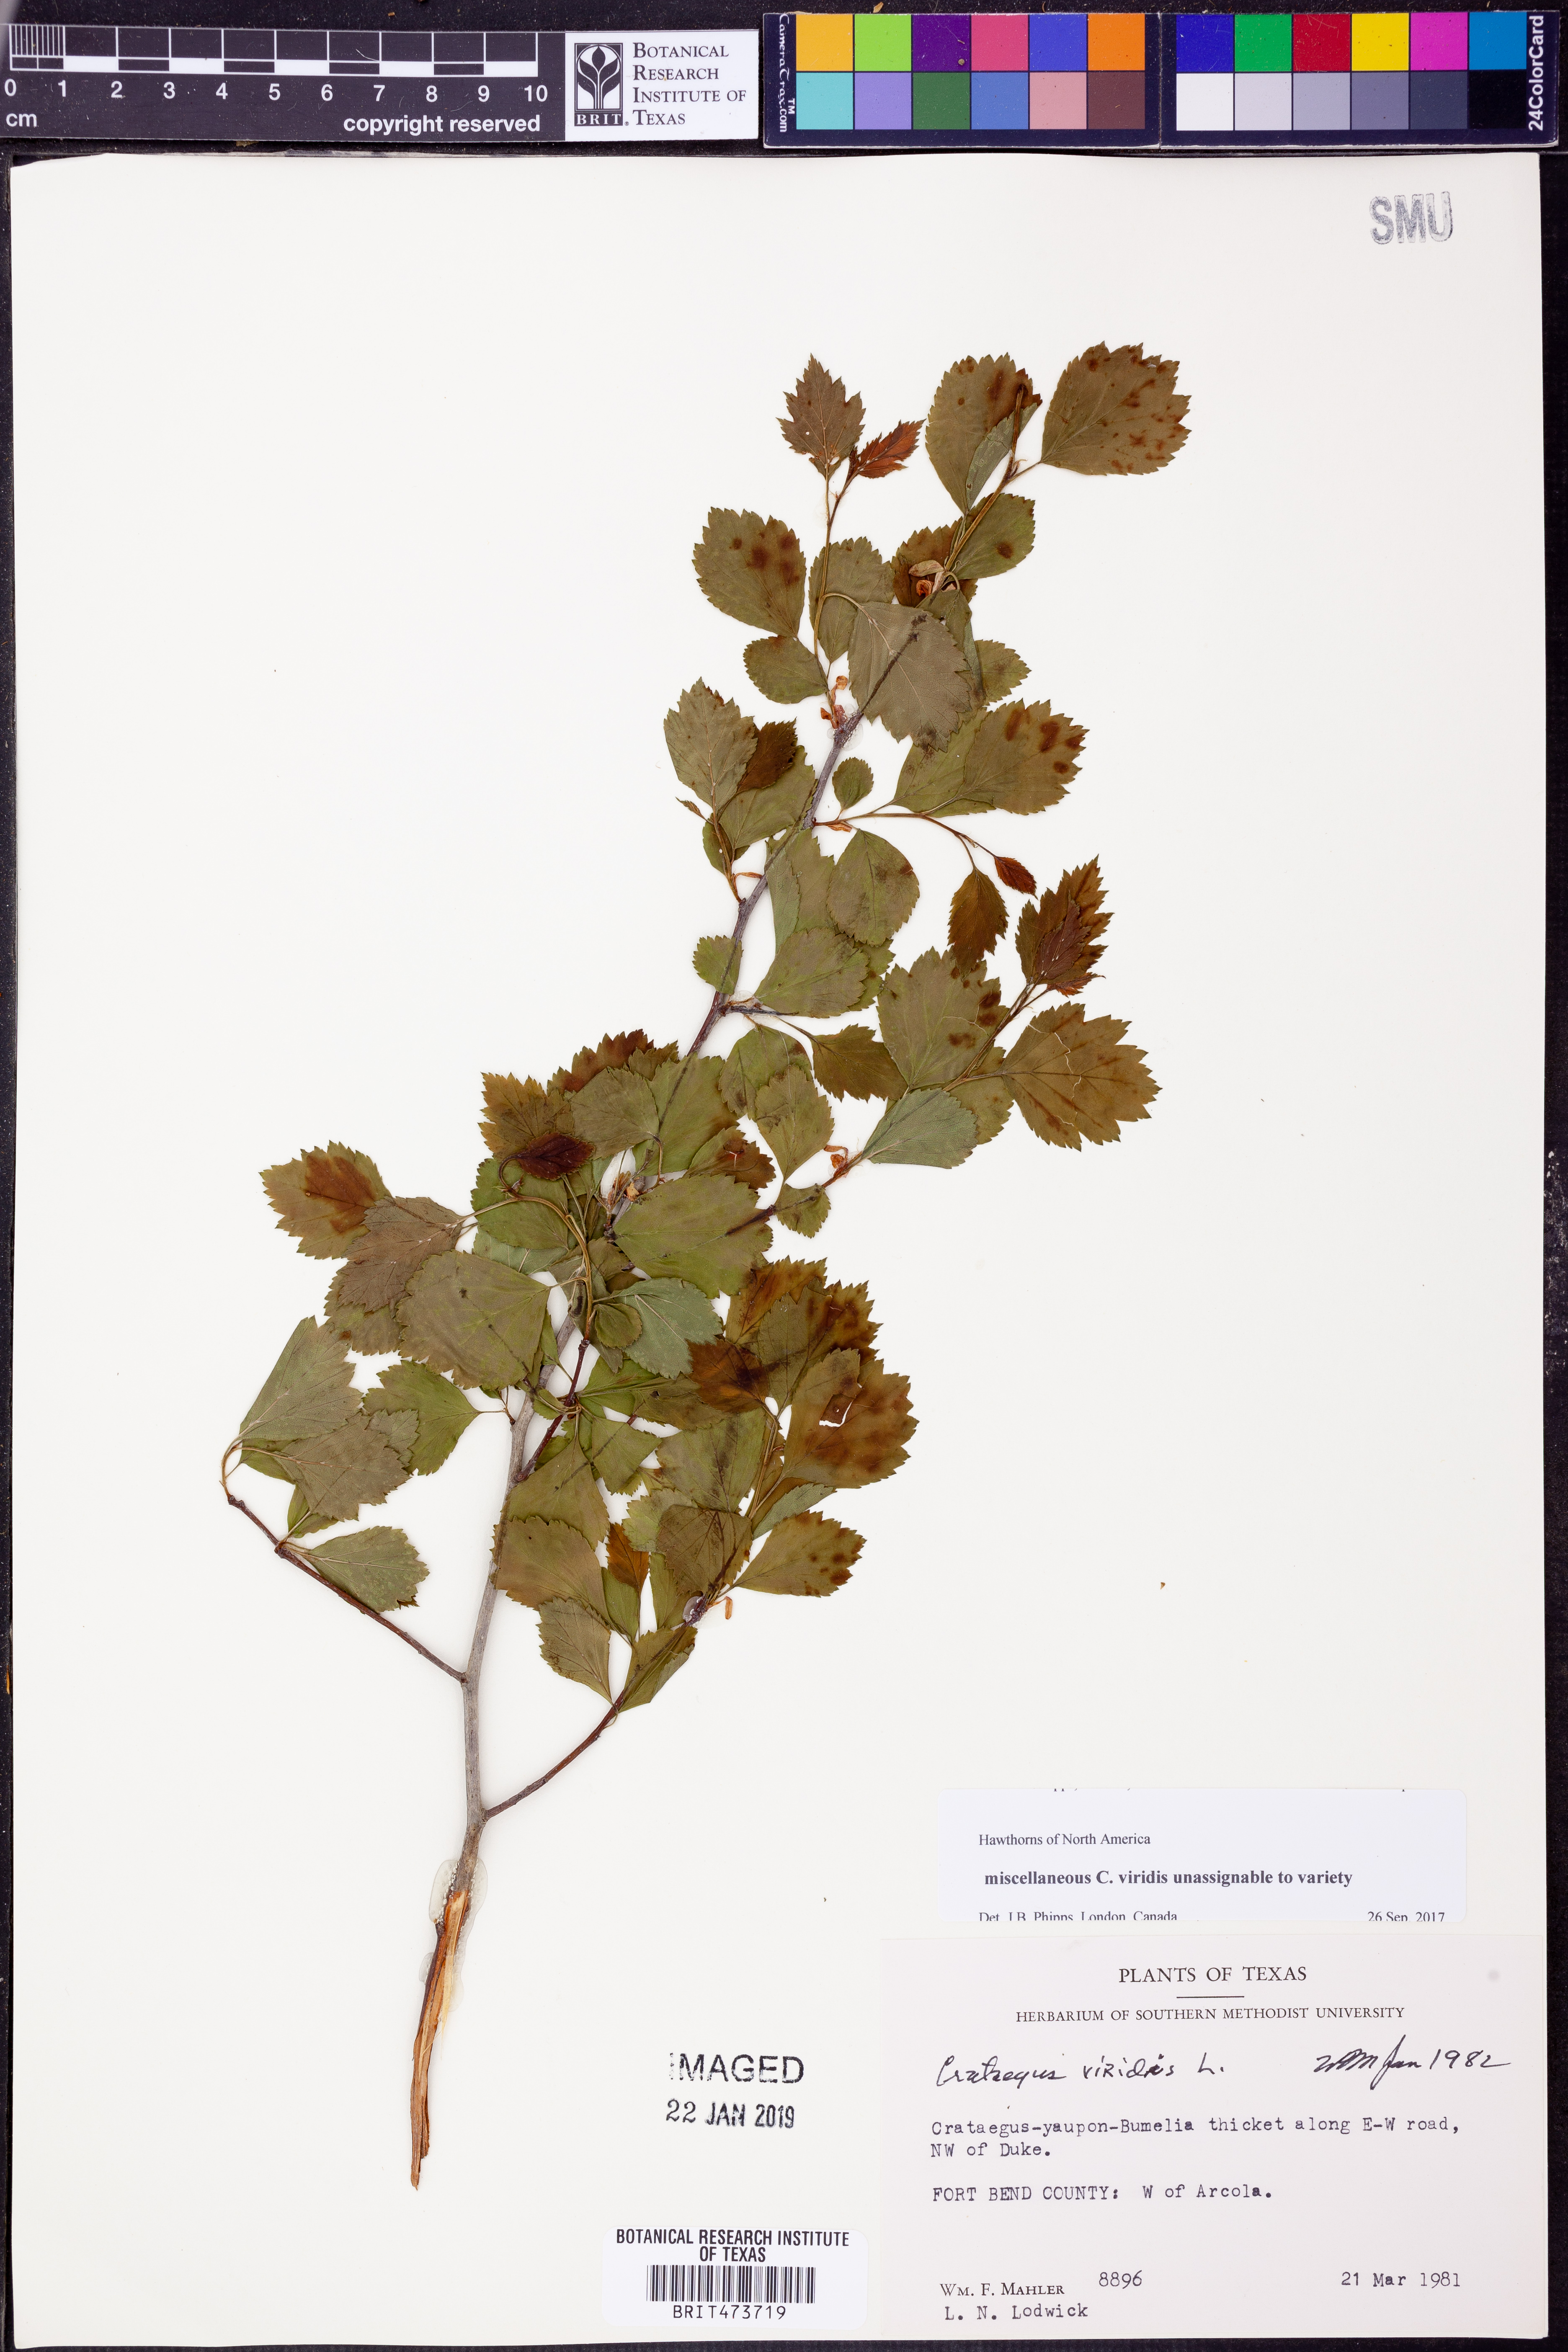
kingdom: Plantae
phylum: Tracheophyta
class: Magnoliopsida
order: Rosales
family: Rosaceae
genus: Crataegus
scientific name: Crataegus viridis
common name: Southernthorn
